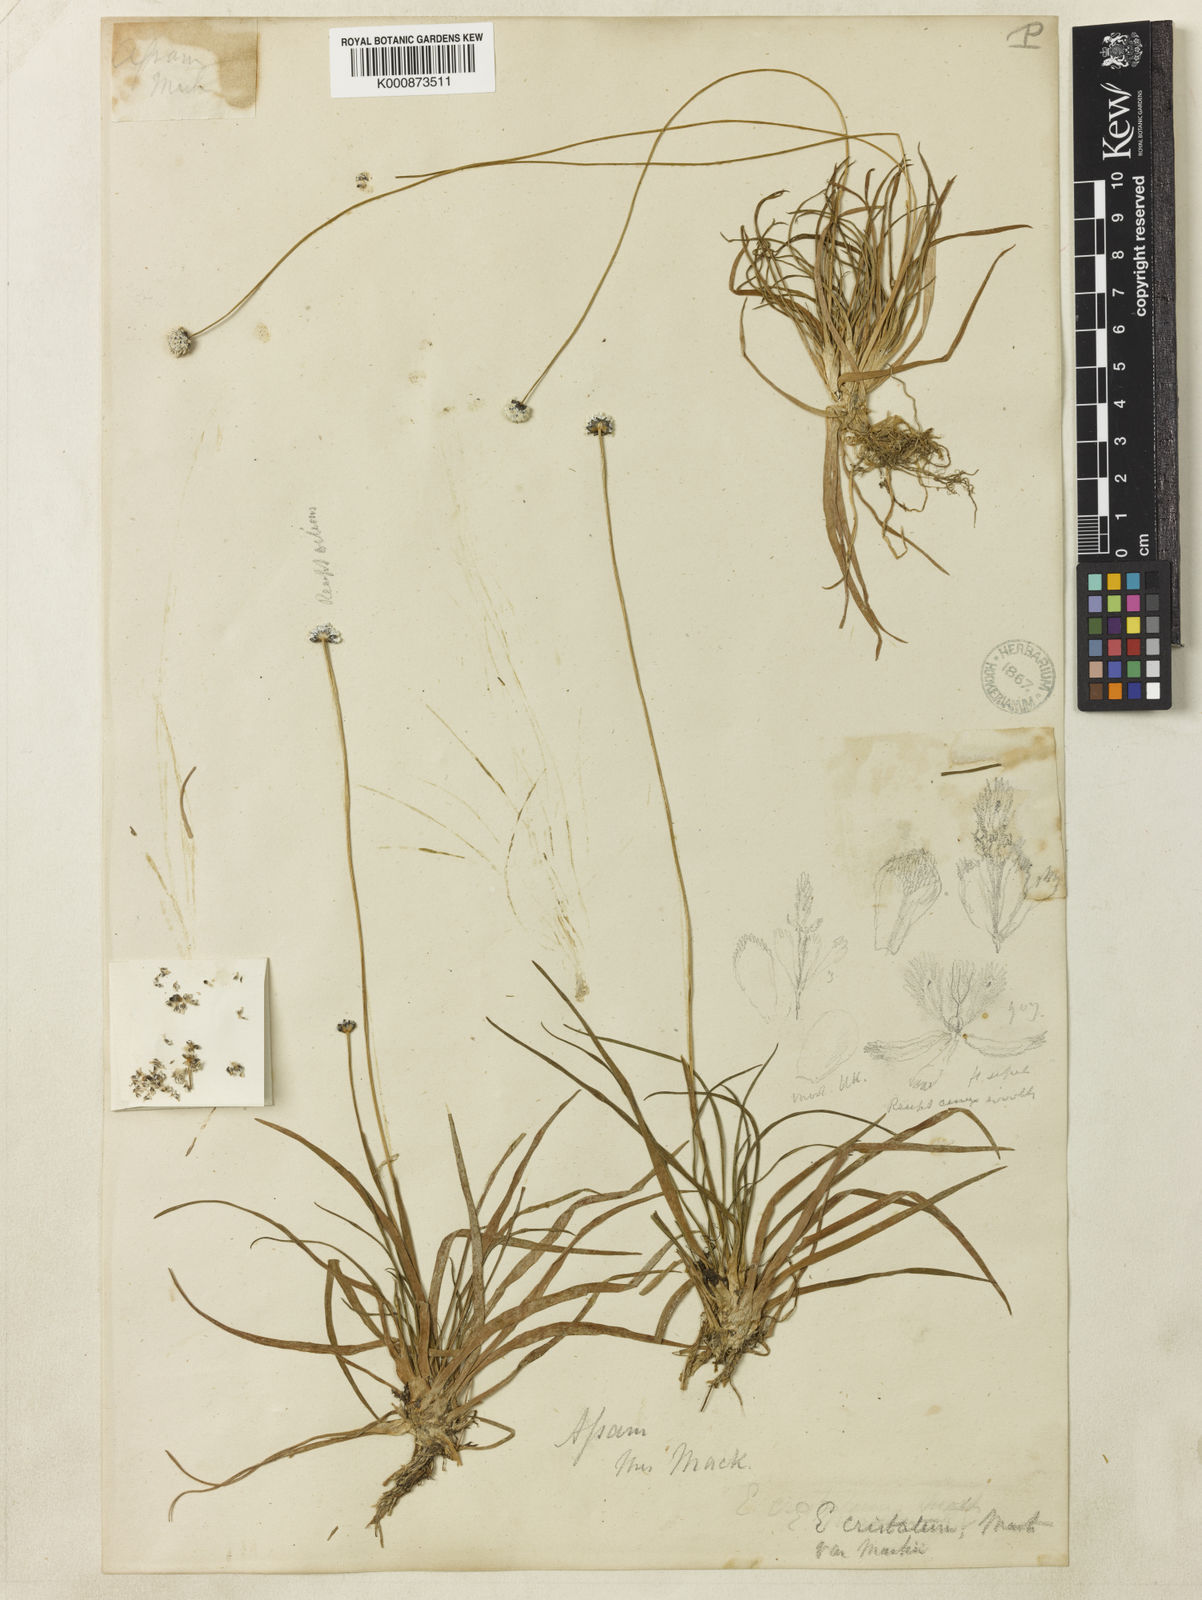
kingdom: Plantae
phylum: Tracheophyta
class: Liliopsida
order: Poales
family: Eriocaulaceae
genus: Eriocaulon
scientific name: Eriocaulon cristatum
